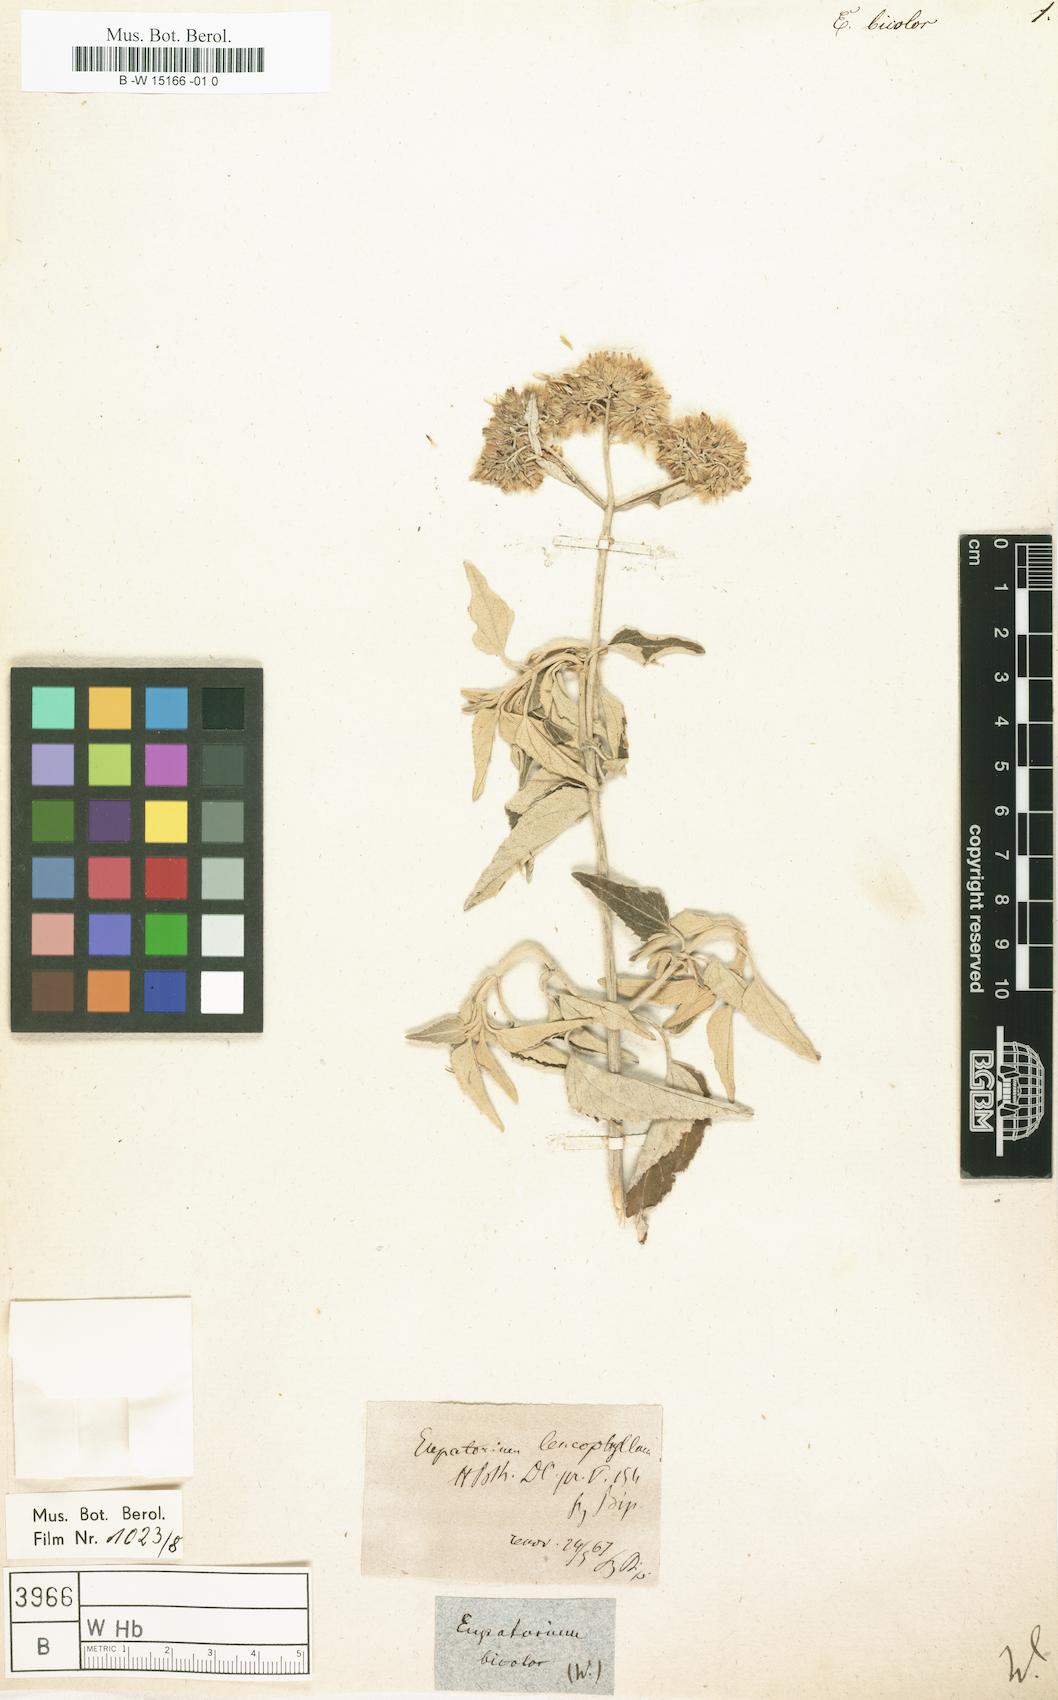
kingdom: Plantae
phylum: Tracheophyta
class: Magnoliopsida
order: Asterales
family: Asteraceae
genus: Gynoxys
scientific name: Gynoxys buxifolia
